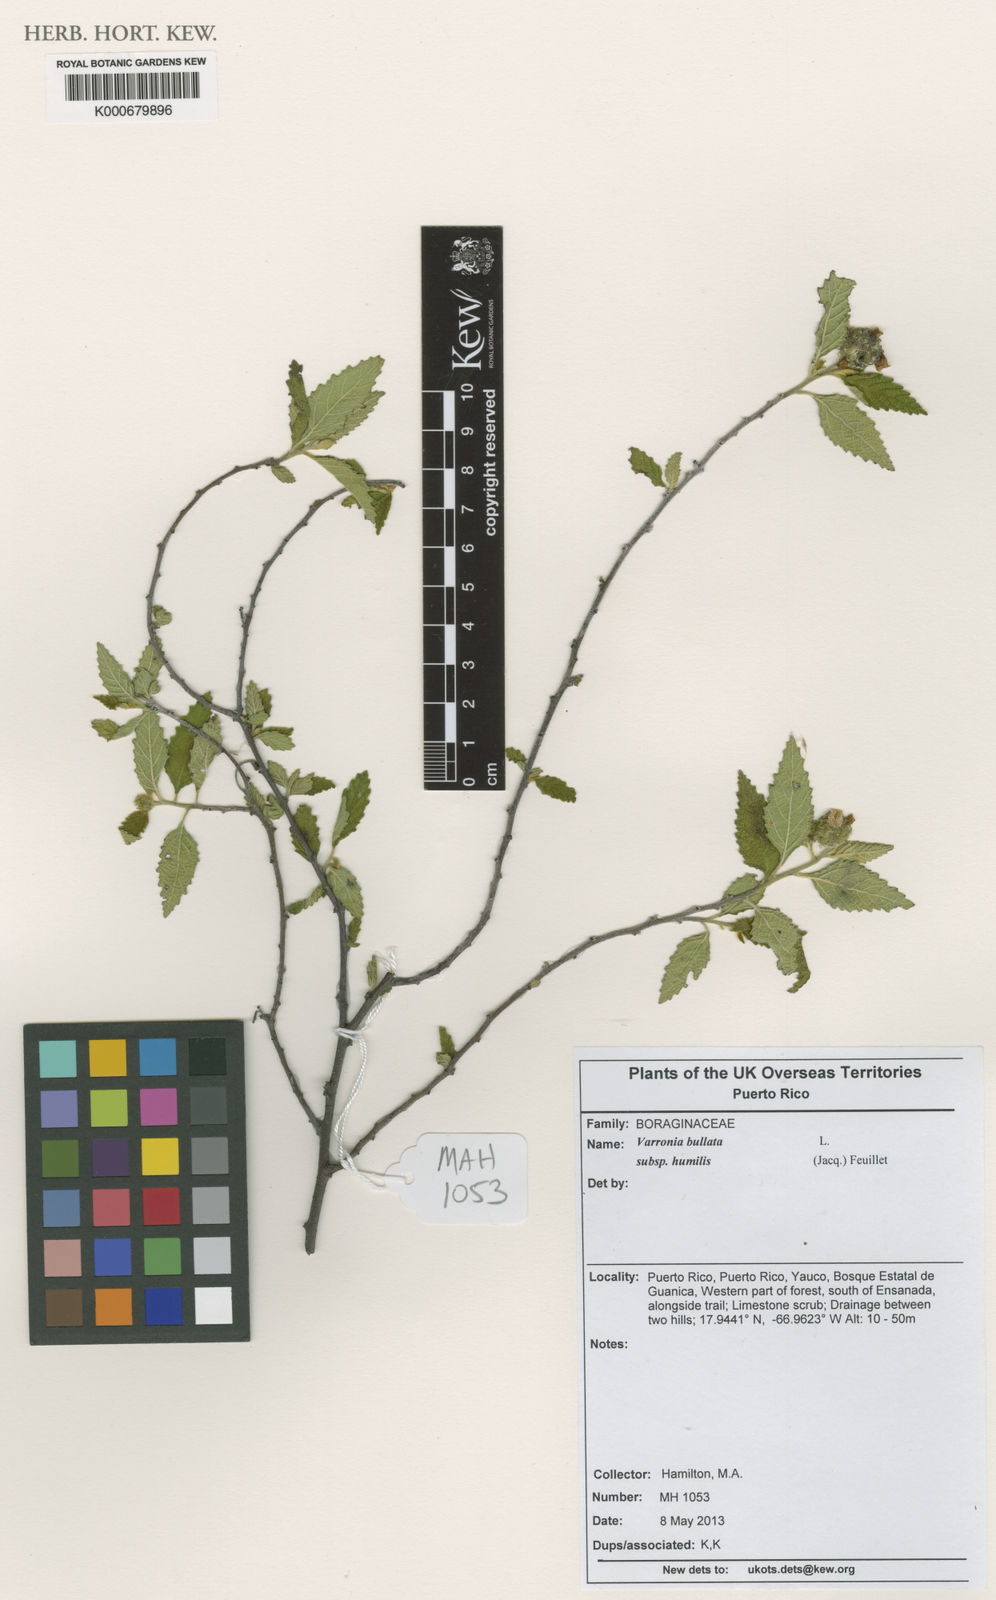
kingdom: Plantae
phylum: Tracheophyta
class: Magnoliopsida
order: Boraginales
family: Cordiaceae
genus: Varronia
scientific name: Varronia bullata
